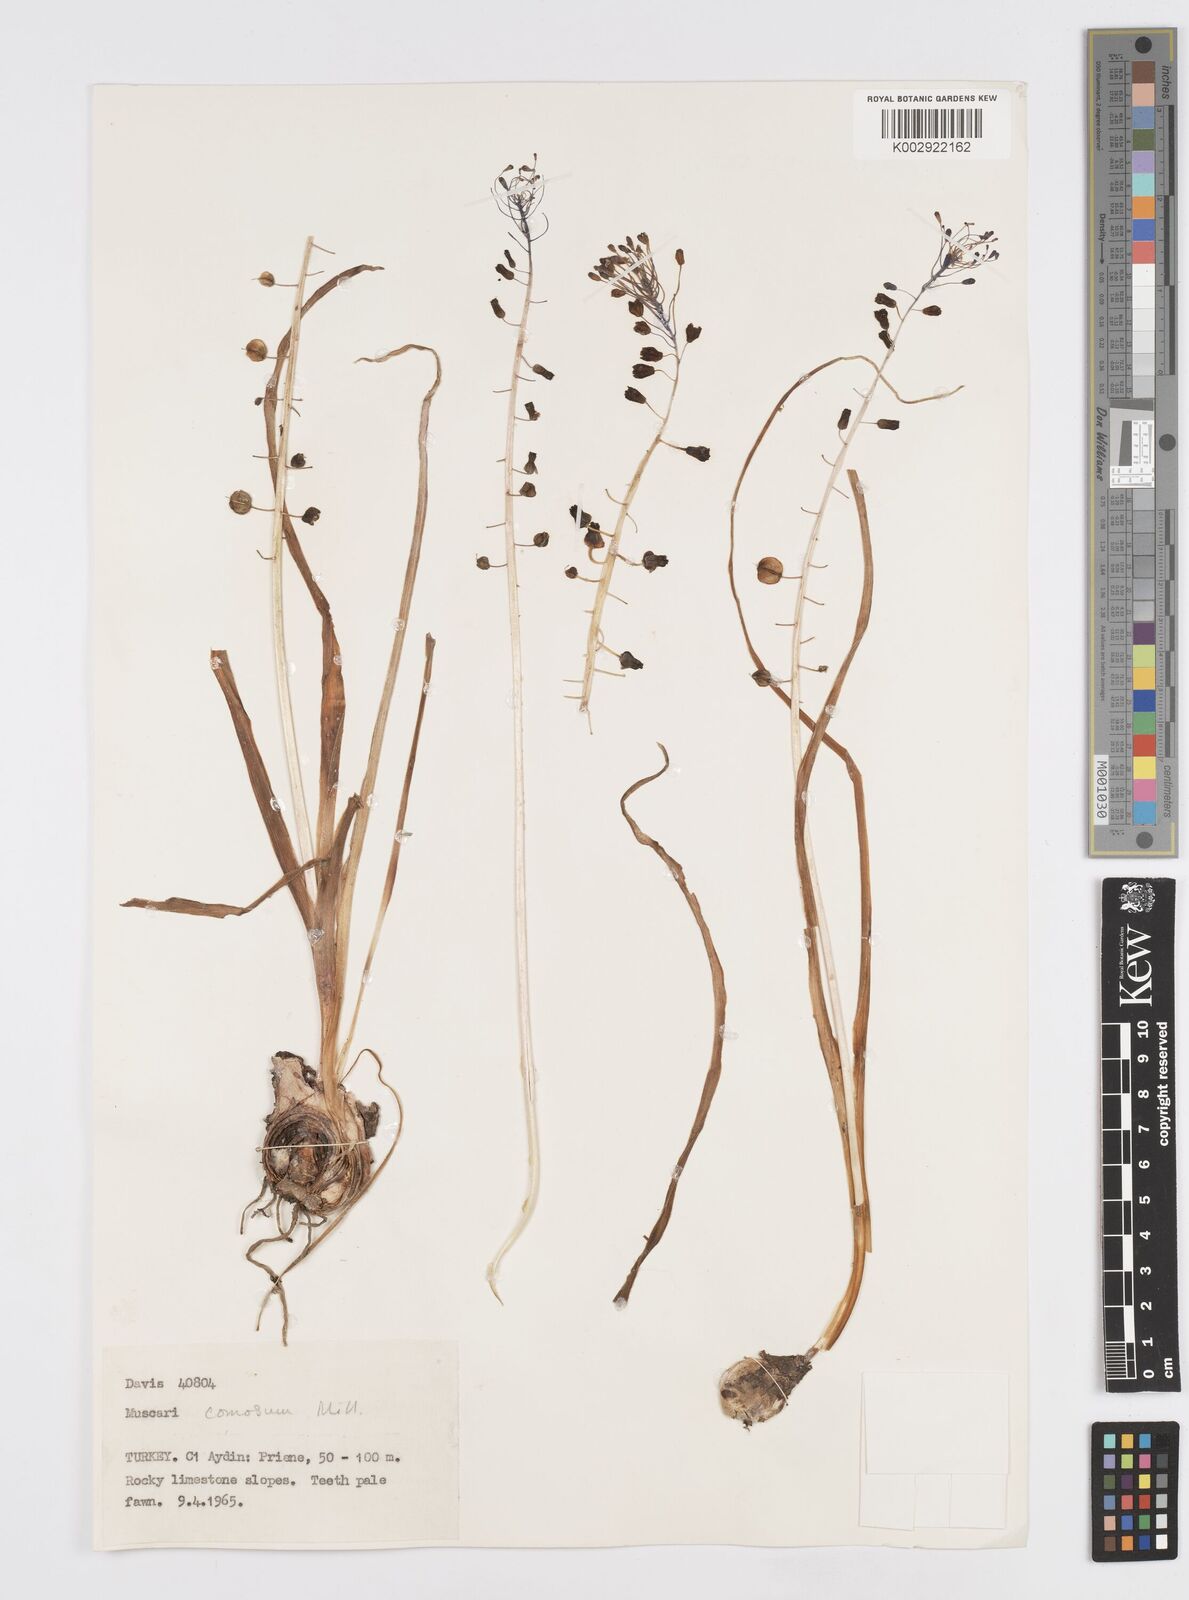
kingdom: Plantae
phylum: Tracheophyta
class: Liliopsida
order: Asparagales
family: Asparagaceae
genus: Muscari
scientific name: Muscari comosum
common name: Tassel hyacinth
